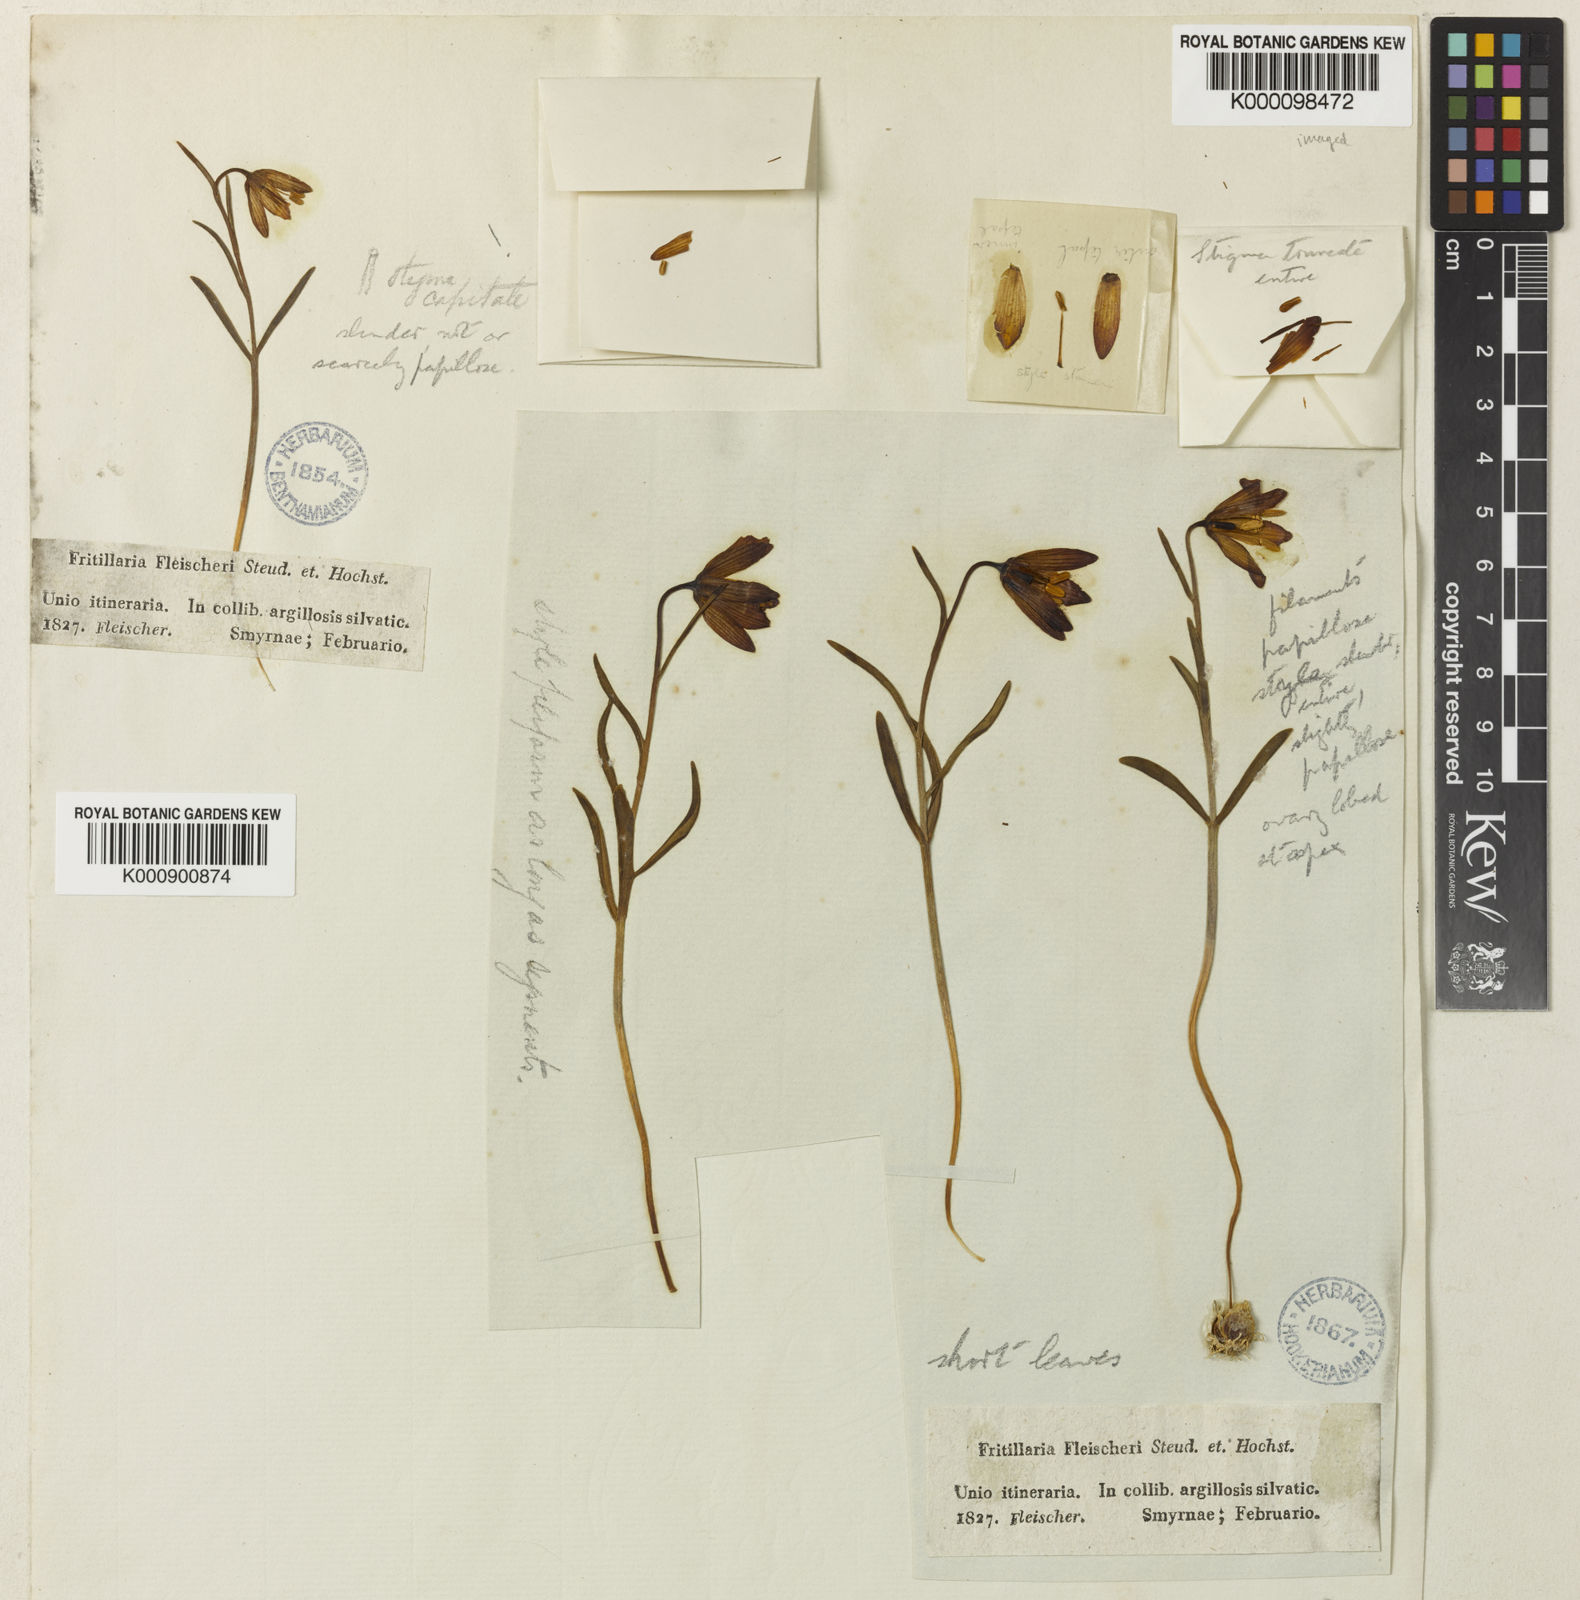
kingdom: Plantae
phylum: Tracheophyta
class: Liliopsida
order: Liliales
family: Liliaceae
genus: Fritillaria
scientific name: Fritillaria fleischeriana
